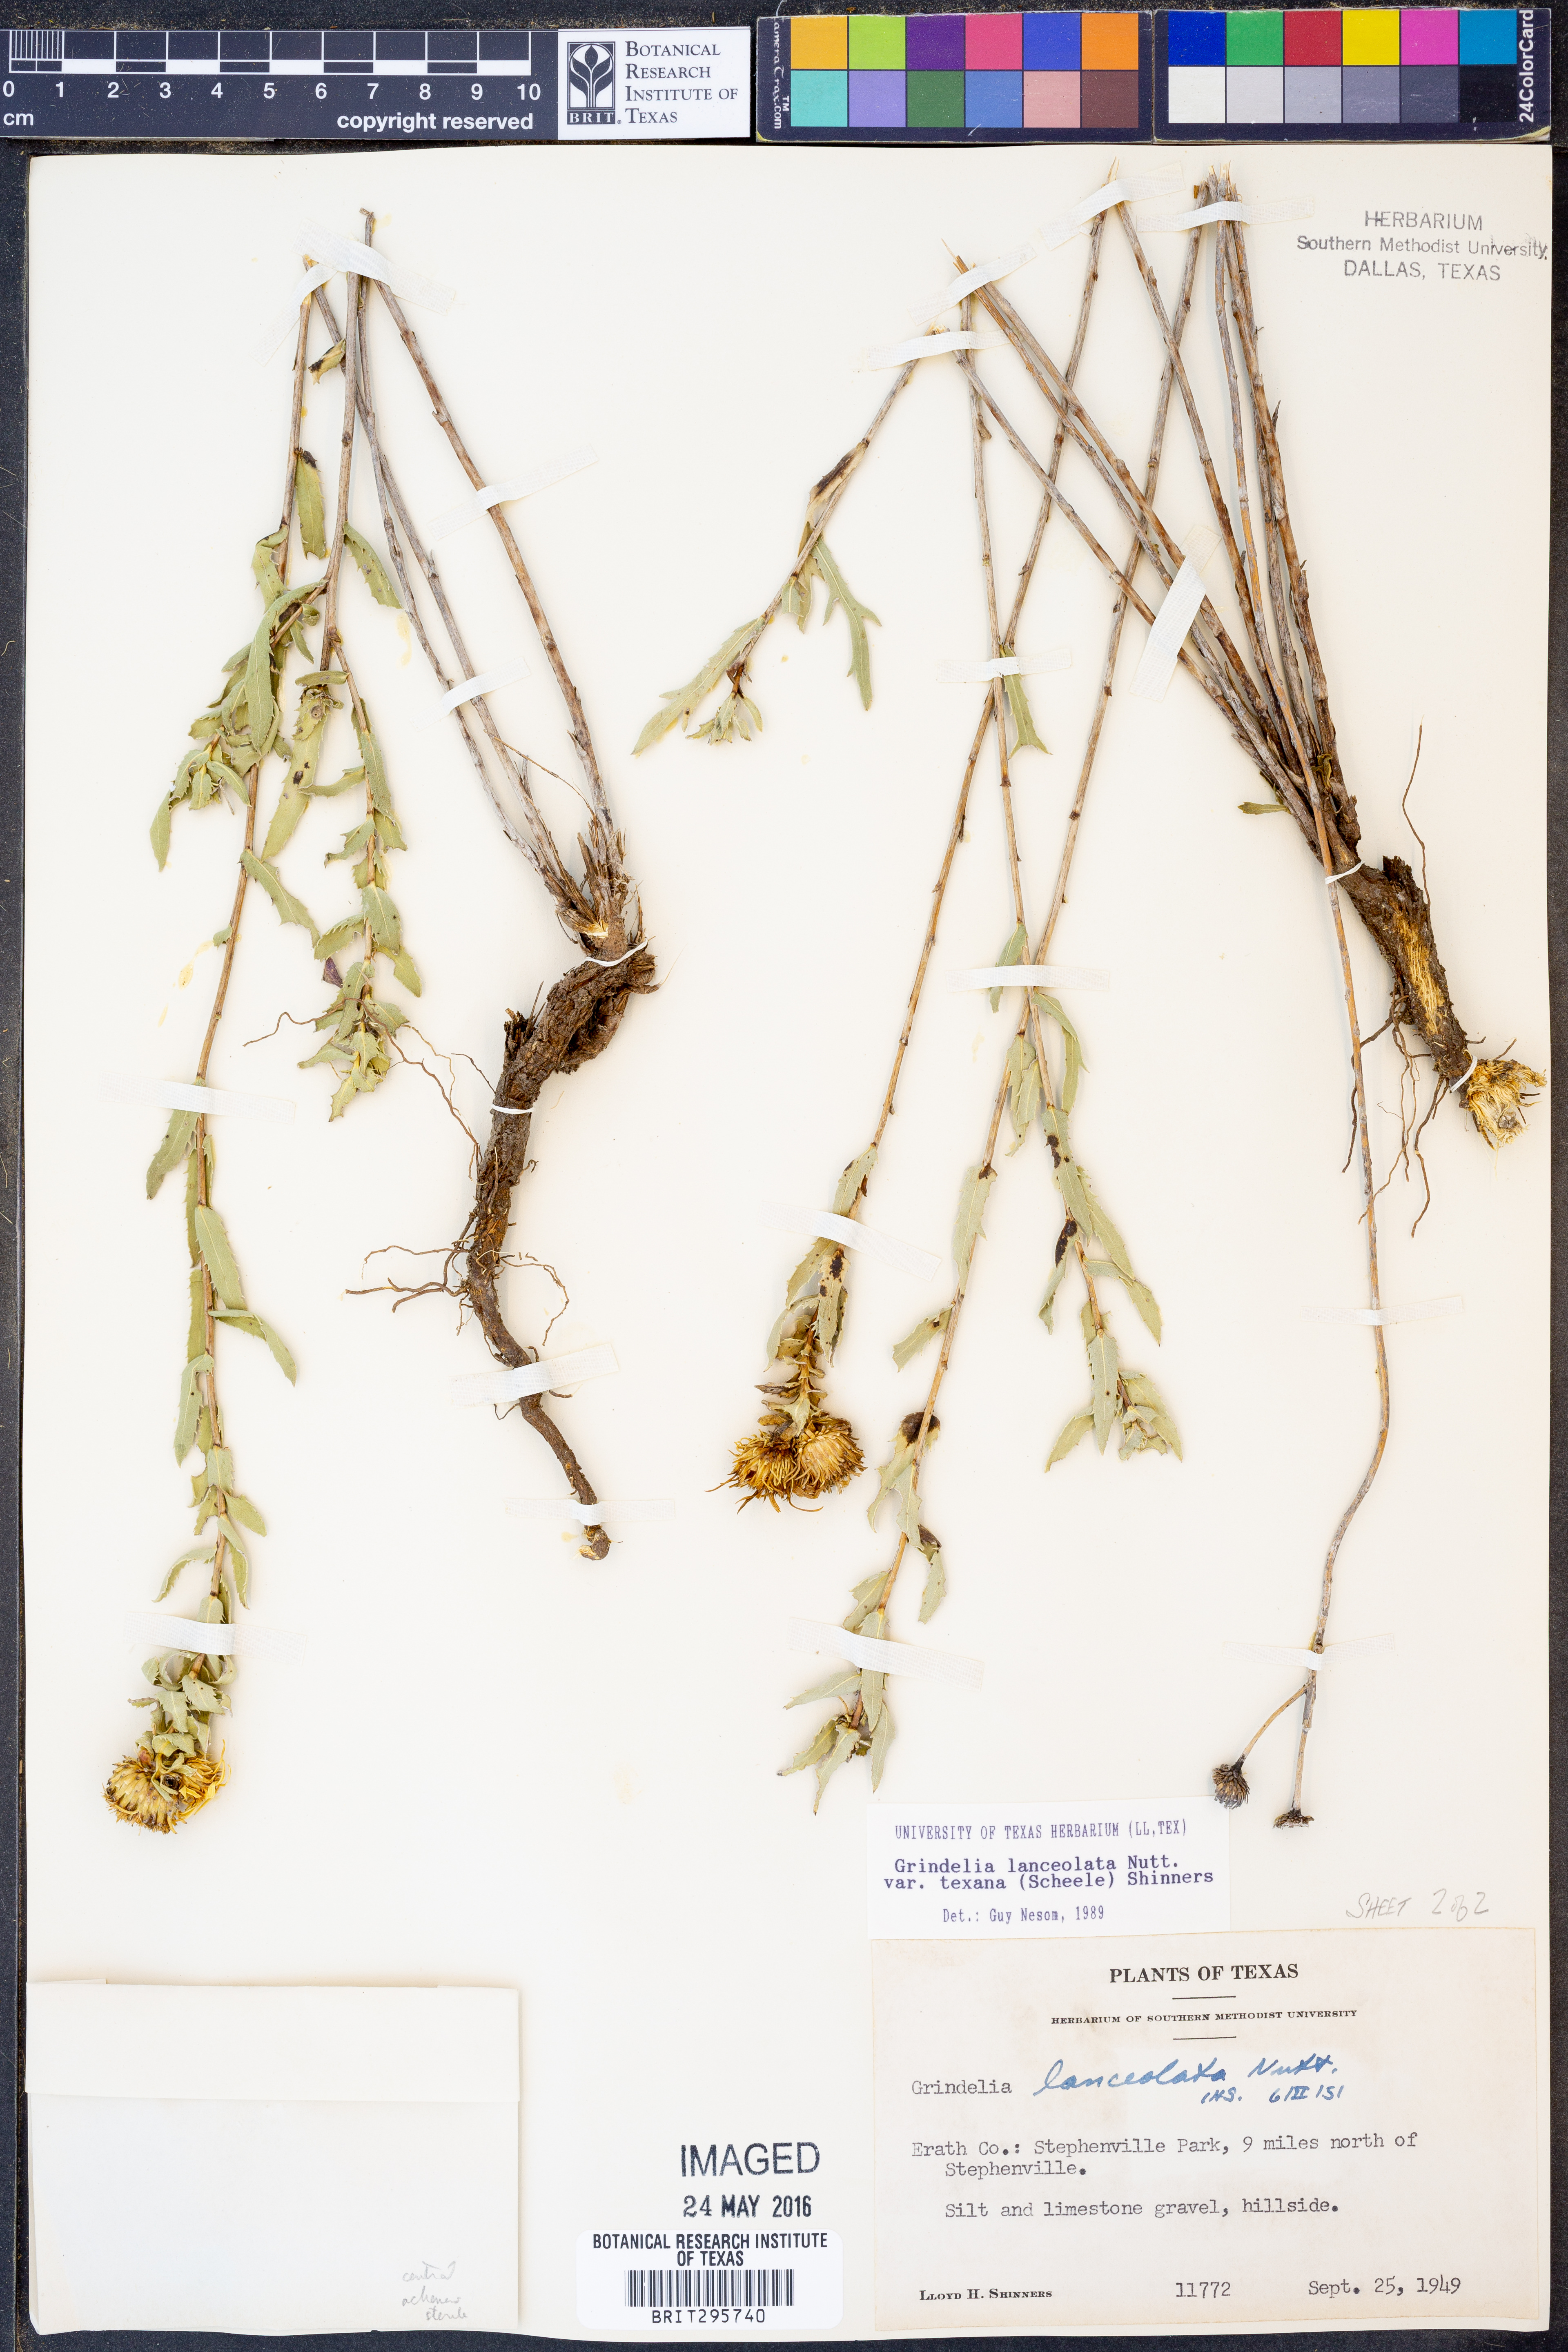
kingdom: Plantae
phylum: Tracheophyta
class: Magnoliopsida
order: Asterales
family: Asteraceae
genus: Grindelia
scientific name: Grindelia texana
